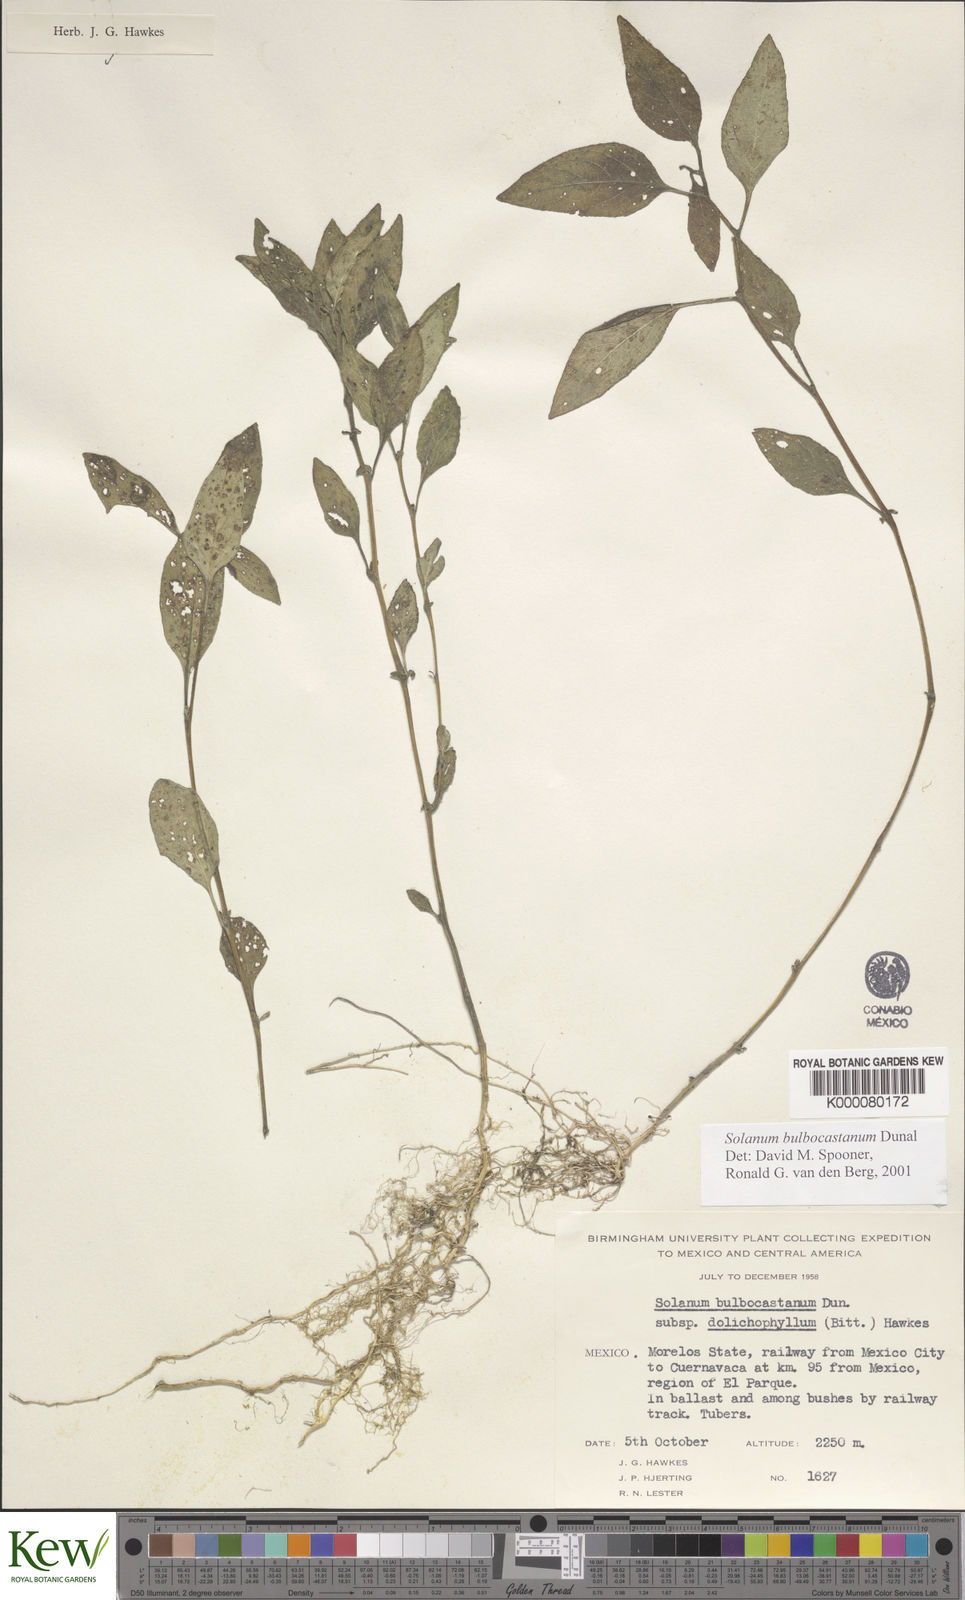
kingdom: Plantae
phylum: Tracheophyta
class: Magnoliopsida
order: Solanales
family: Solanaceae
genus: Solanum
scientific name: Solanum bulbocastanum
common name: Ornamental nightshade
